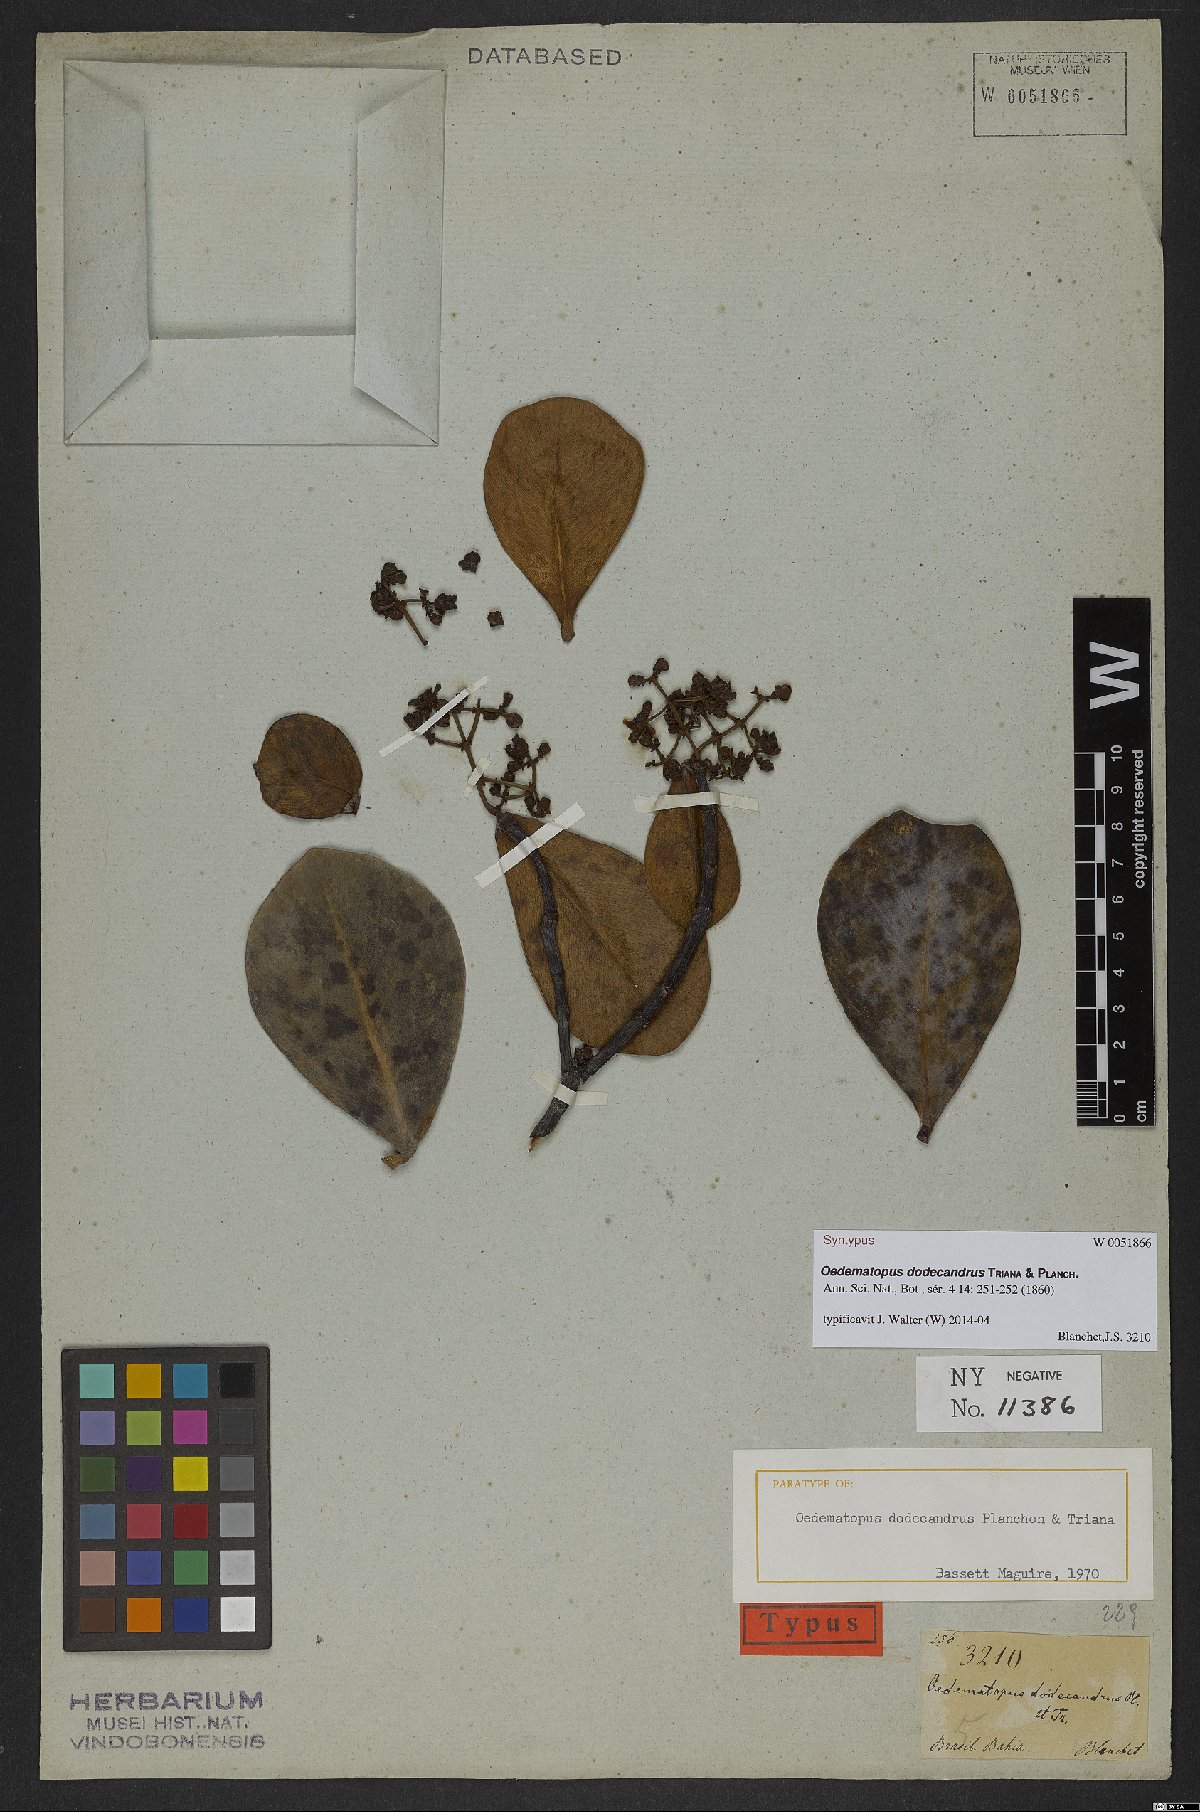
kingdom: Plantae
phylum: Tracheophyta
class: Magnoliopsida
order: Malpighiales
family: Clusiaceae
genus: Clusia
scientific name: Clusia sellowiana
